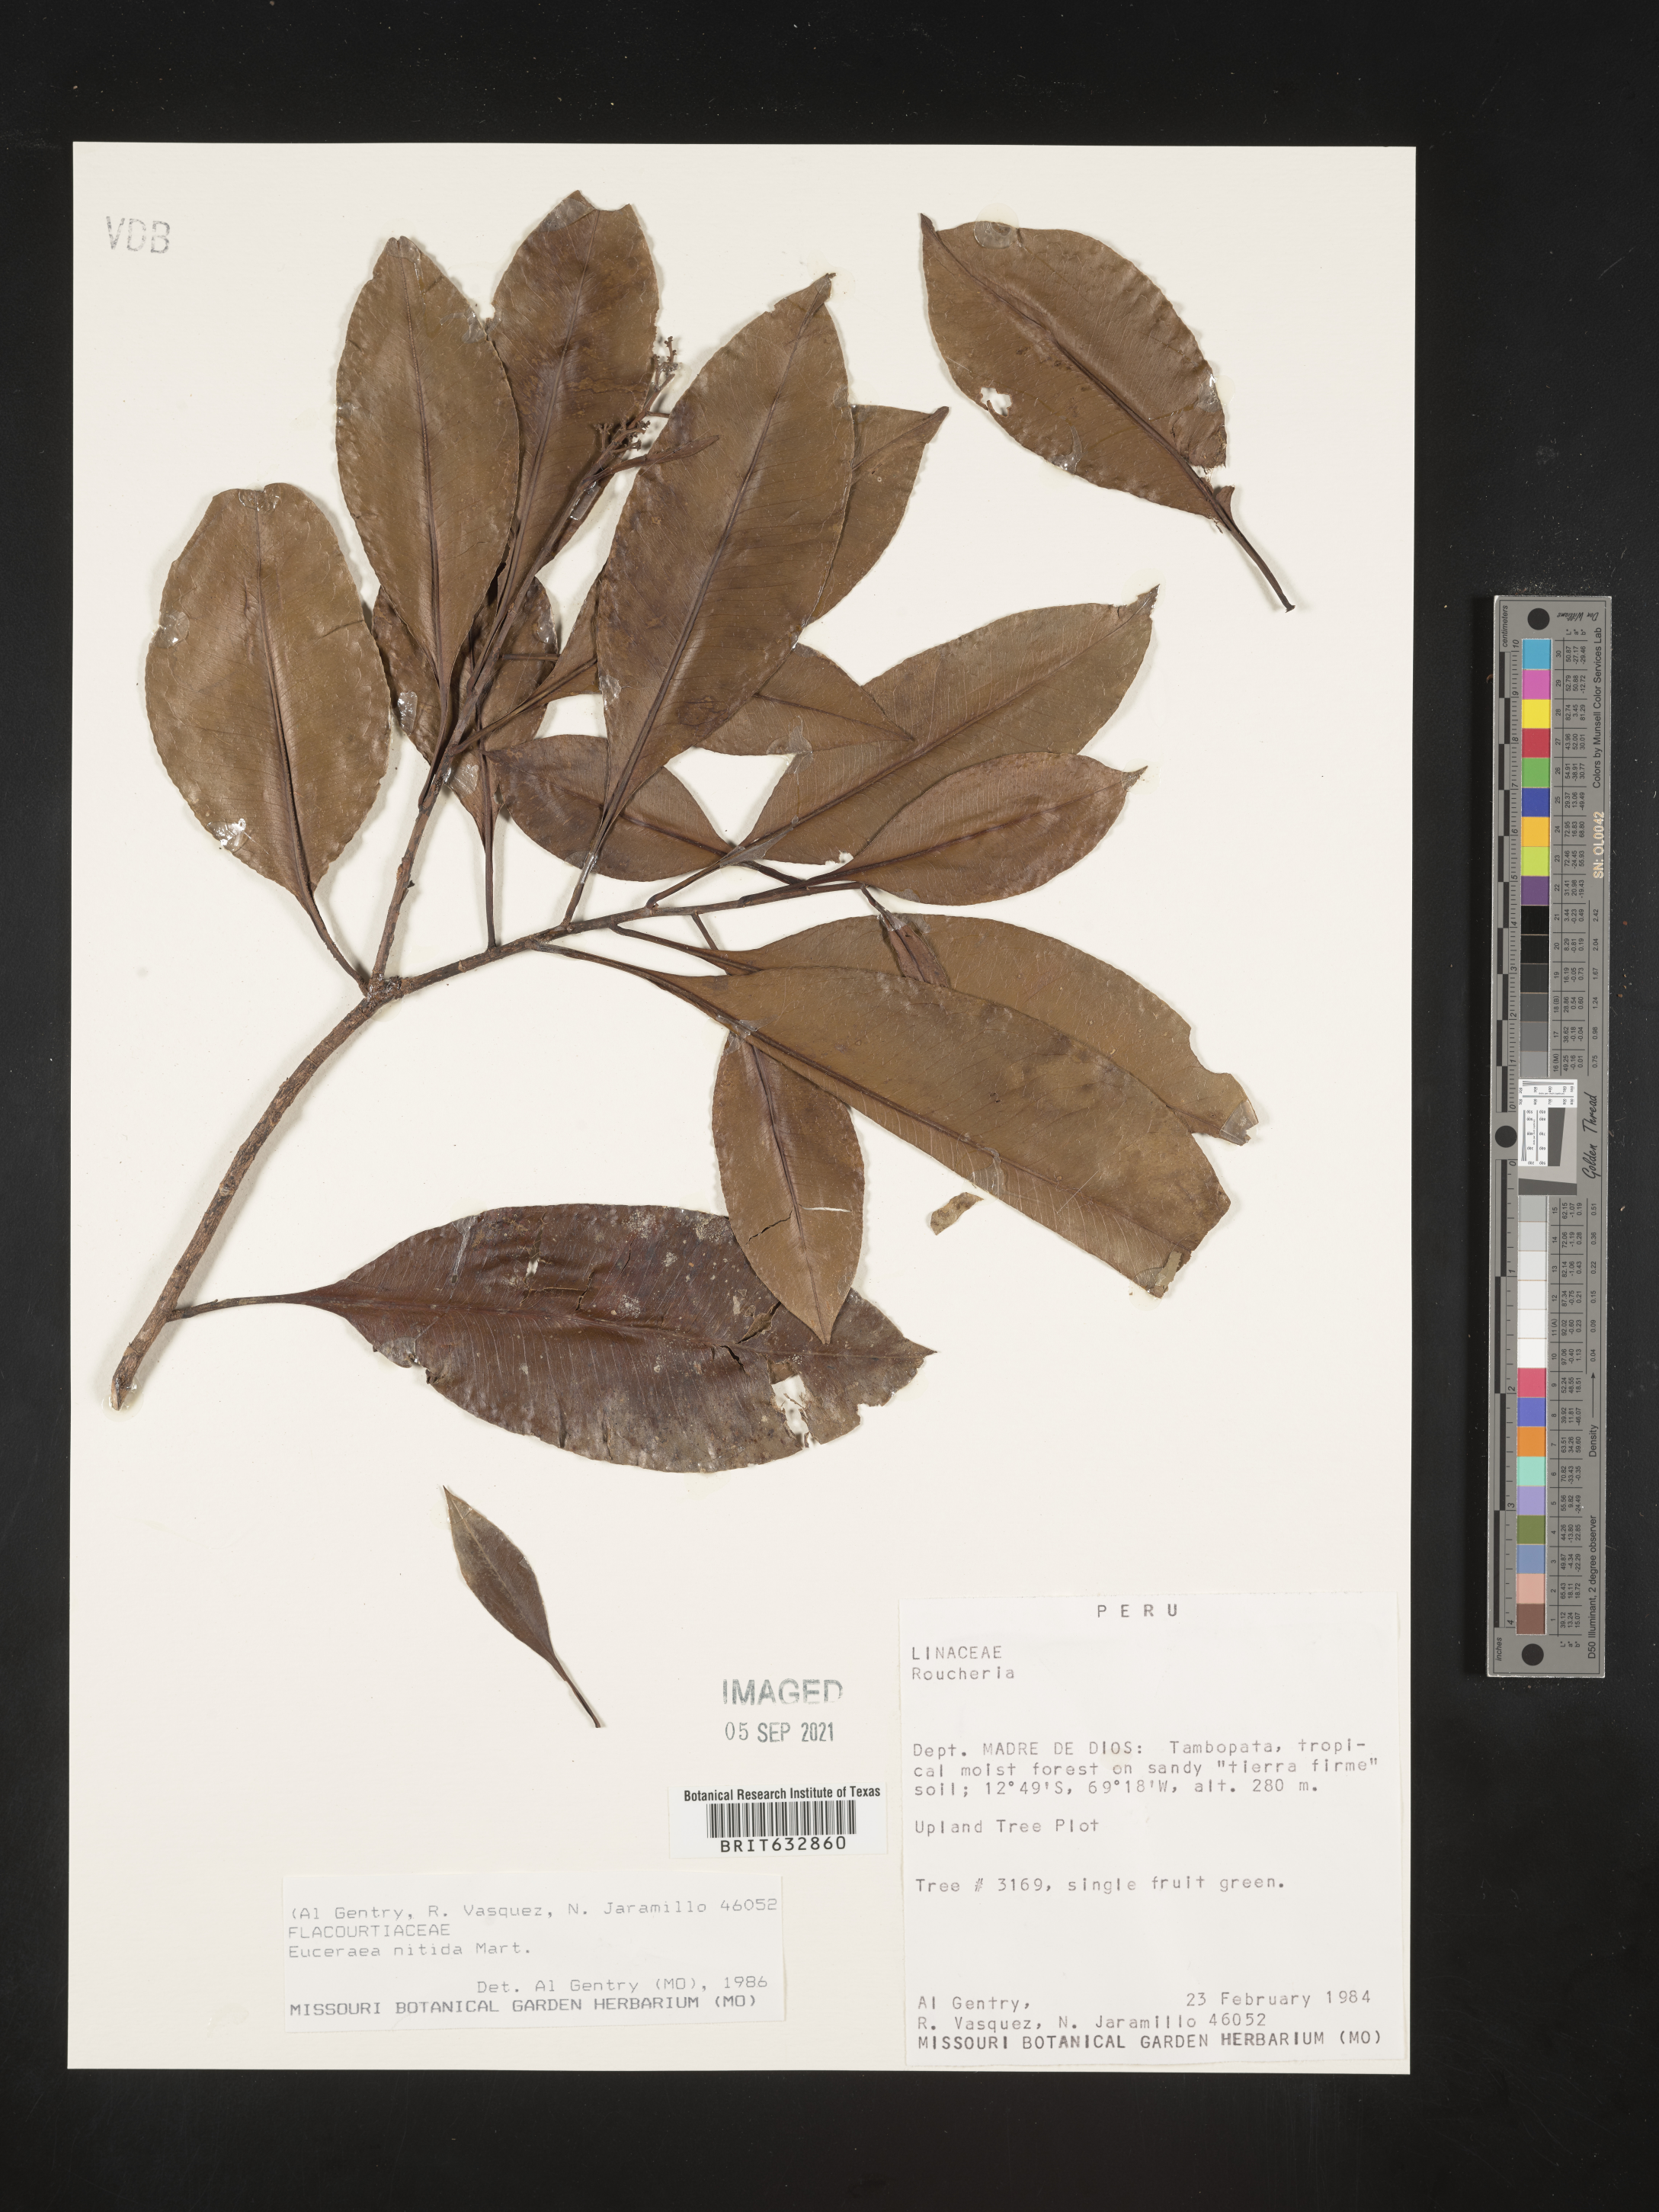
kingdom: Plantae
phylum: Tracheophyta
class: Magnoliopsida
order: Malpighiales
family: Salicaceae
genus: Casearia
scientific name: Casearia
